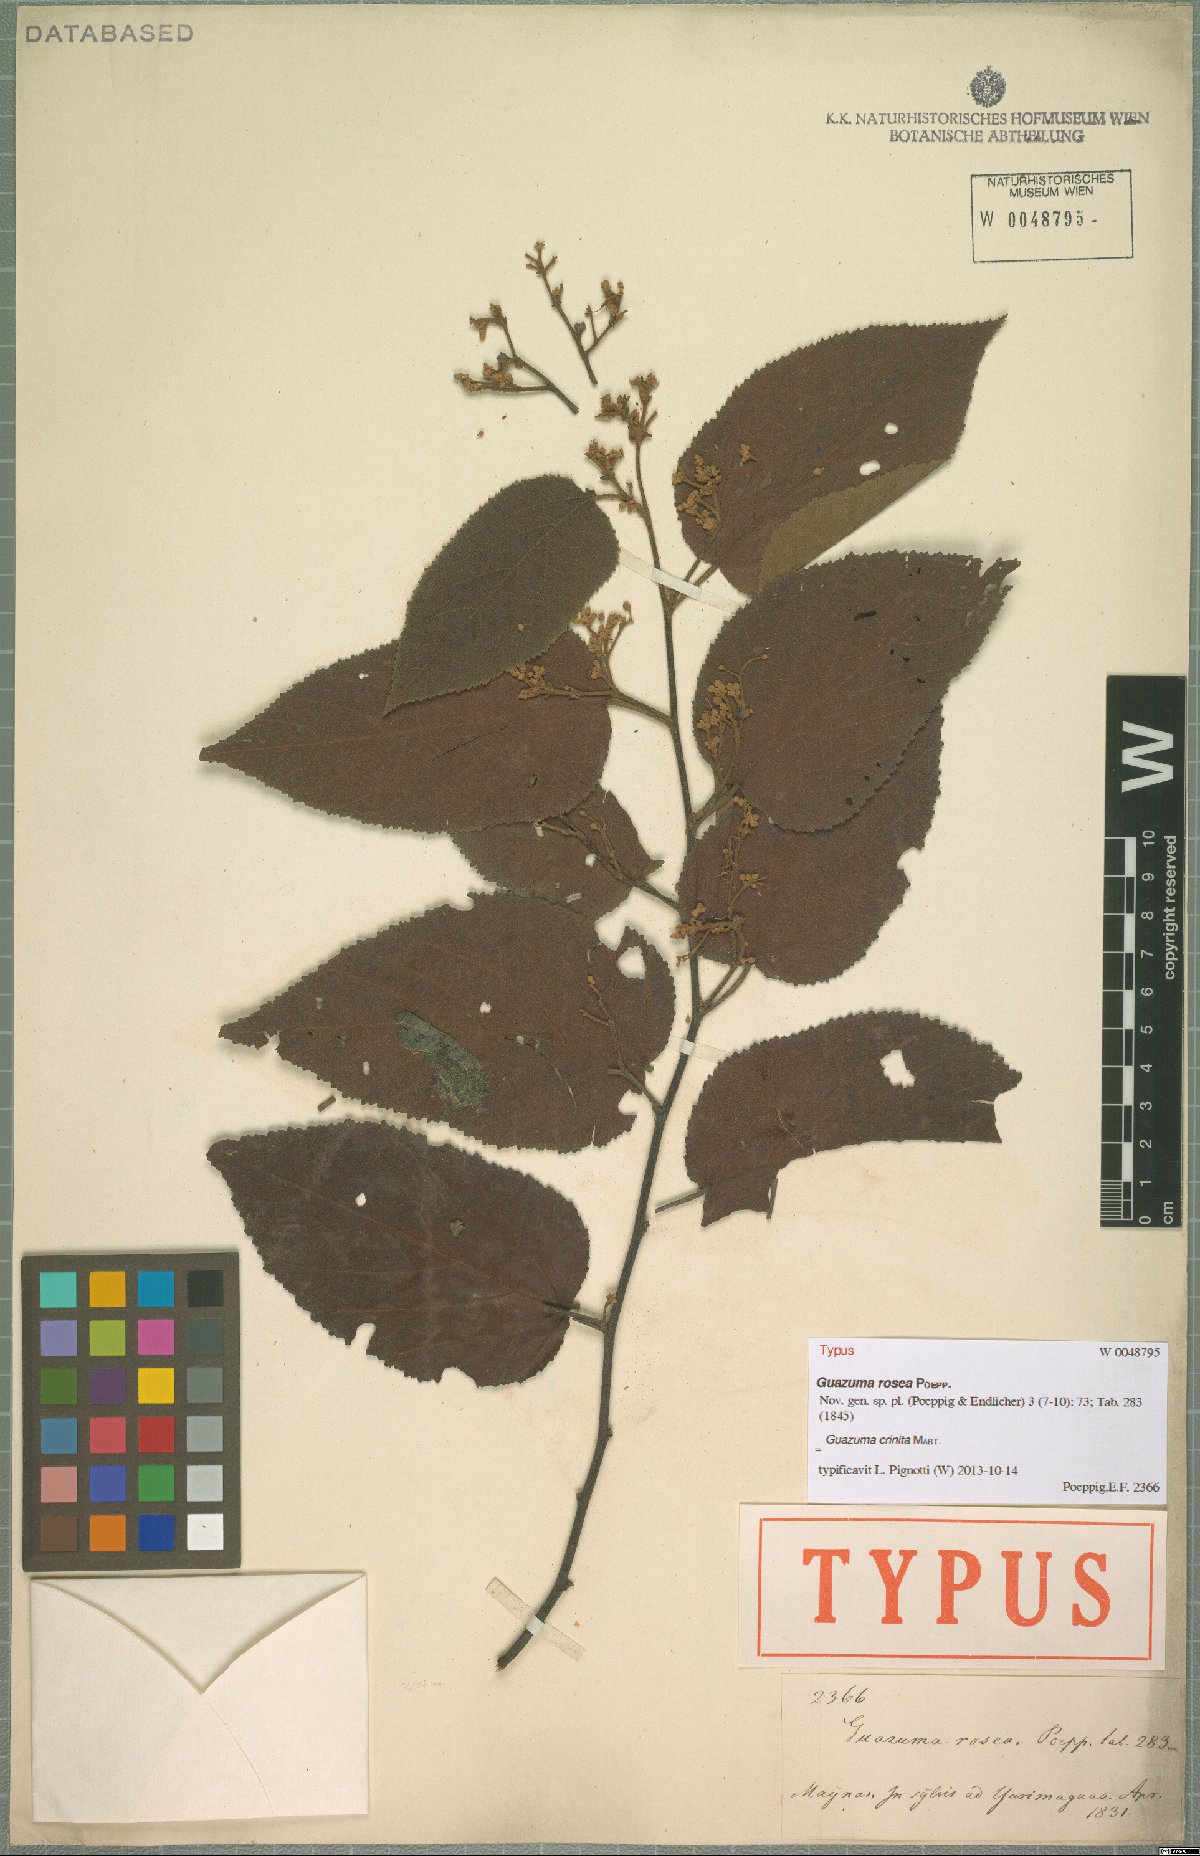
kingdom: Plantae
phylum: Tracheophyta
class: Magnoliopsida
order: Malvales
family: Malvaceae
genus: Guazuma
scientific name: Guazuma crinita
